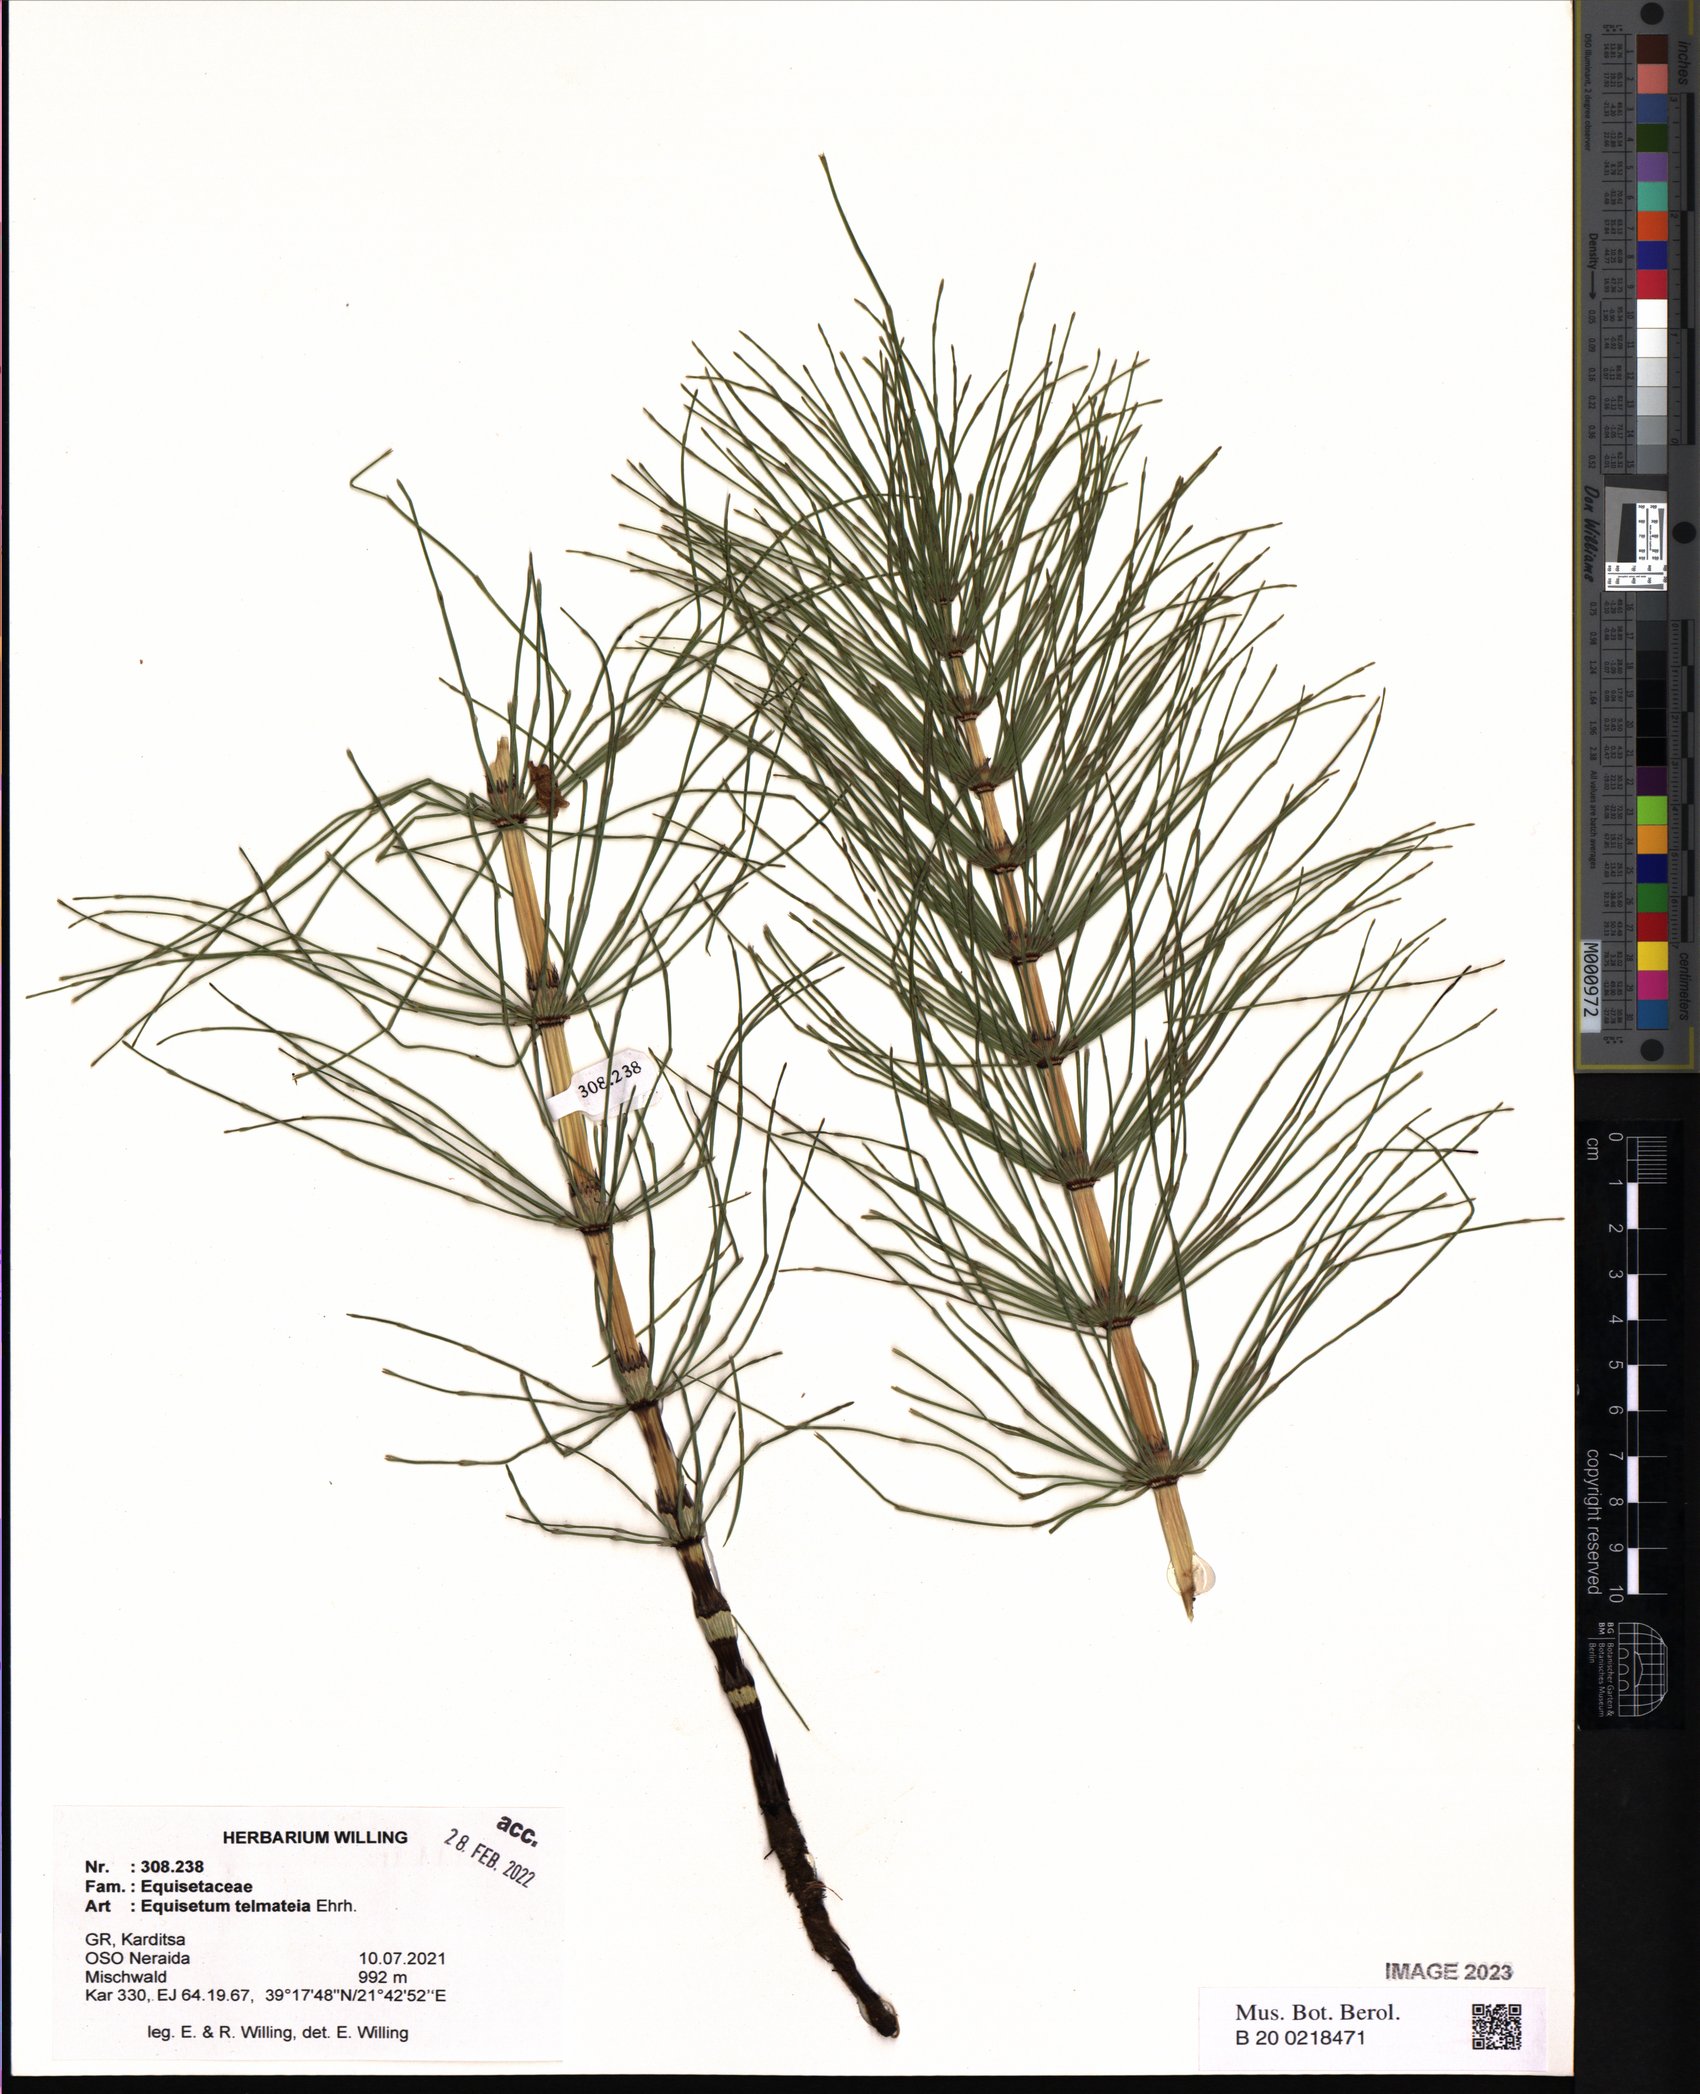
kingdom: Plantae
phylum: Tracheophyta
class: Polypodiopsida
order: Equisetales
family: Equisetaceae
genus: Equisetum
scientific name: Equisetum telmateia
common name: Great horsetail
